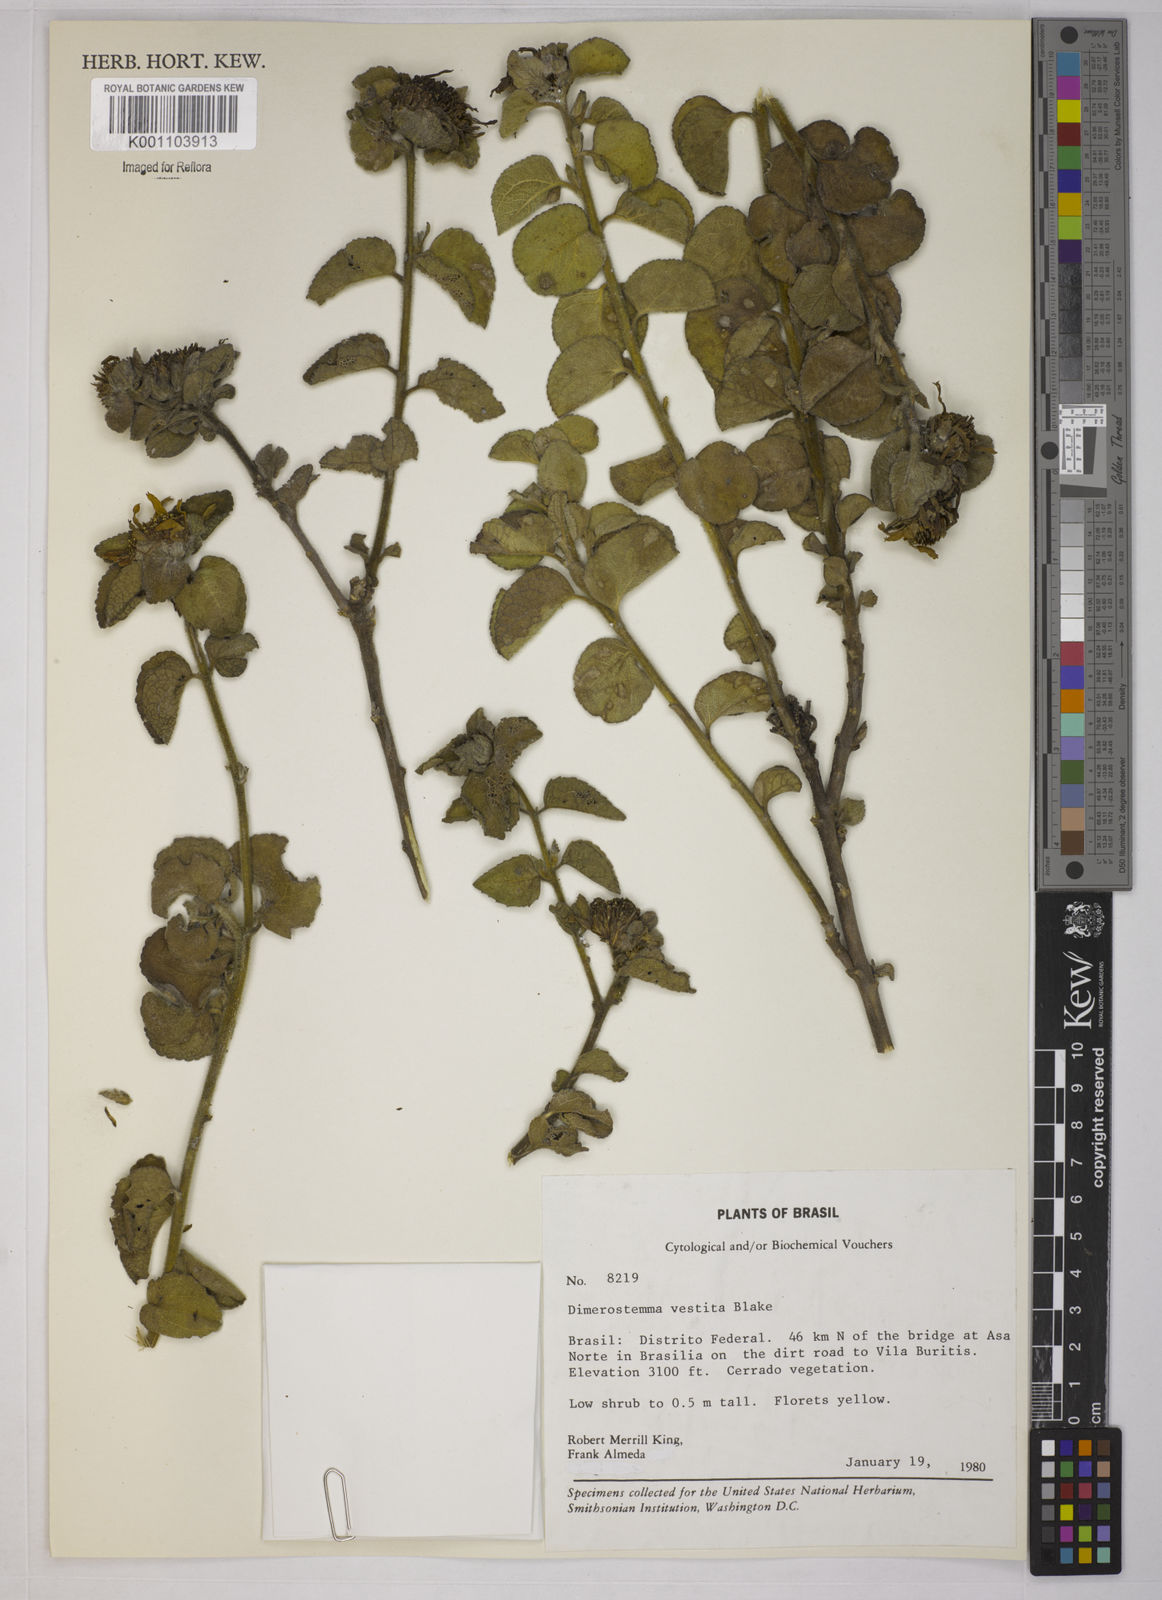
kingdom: Plantae
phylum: Tracheophyta
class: Magnoliopsida
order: Asterales
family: Asteraceae
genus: Dimerostemma
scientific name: Dimerostemma vestitum
